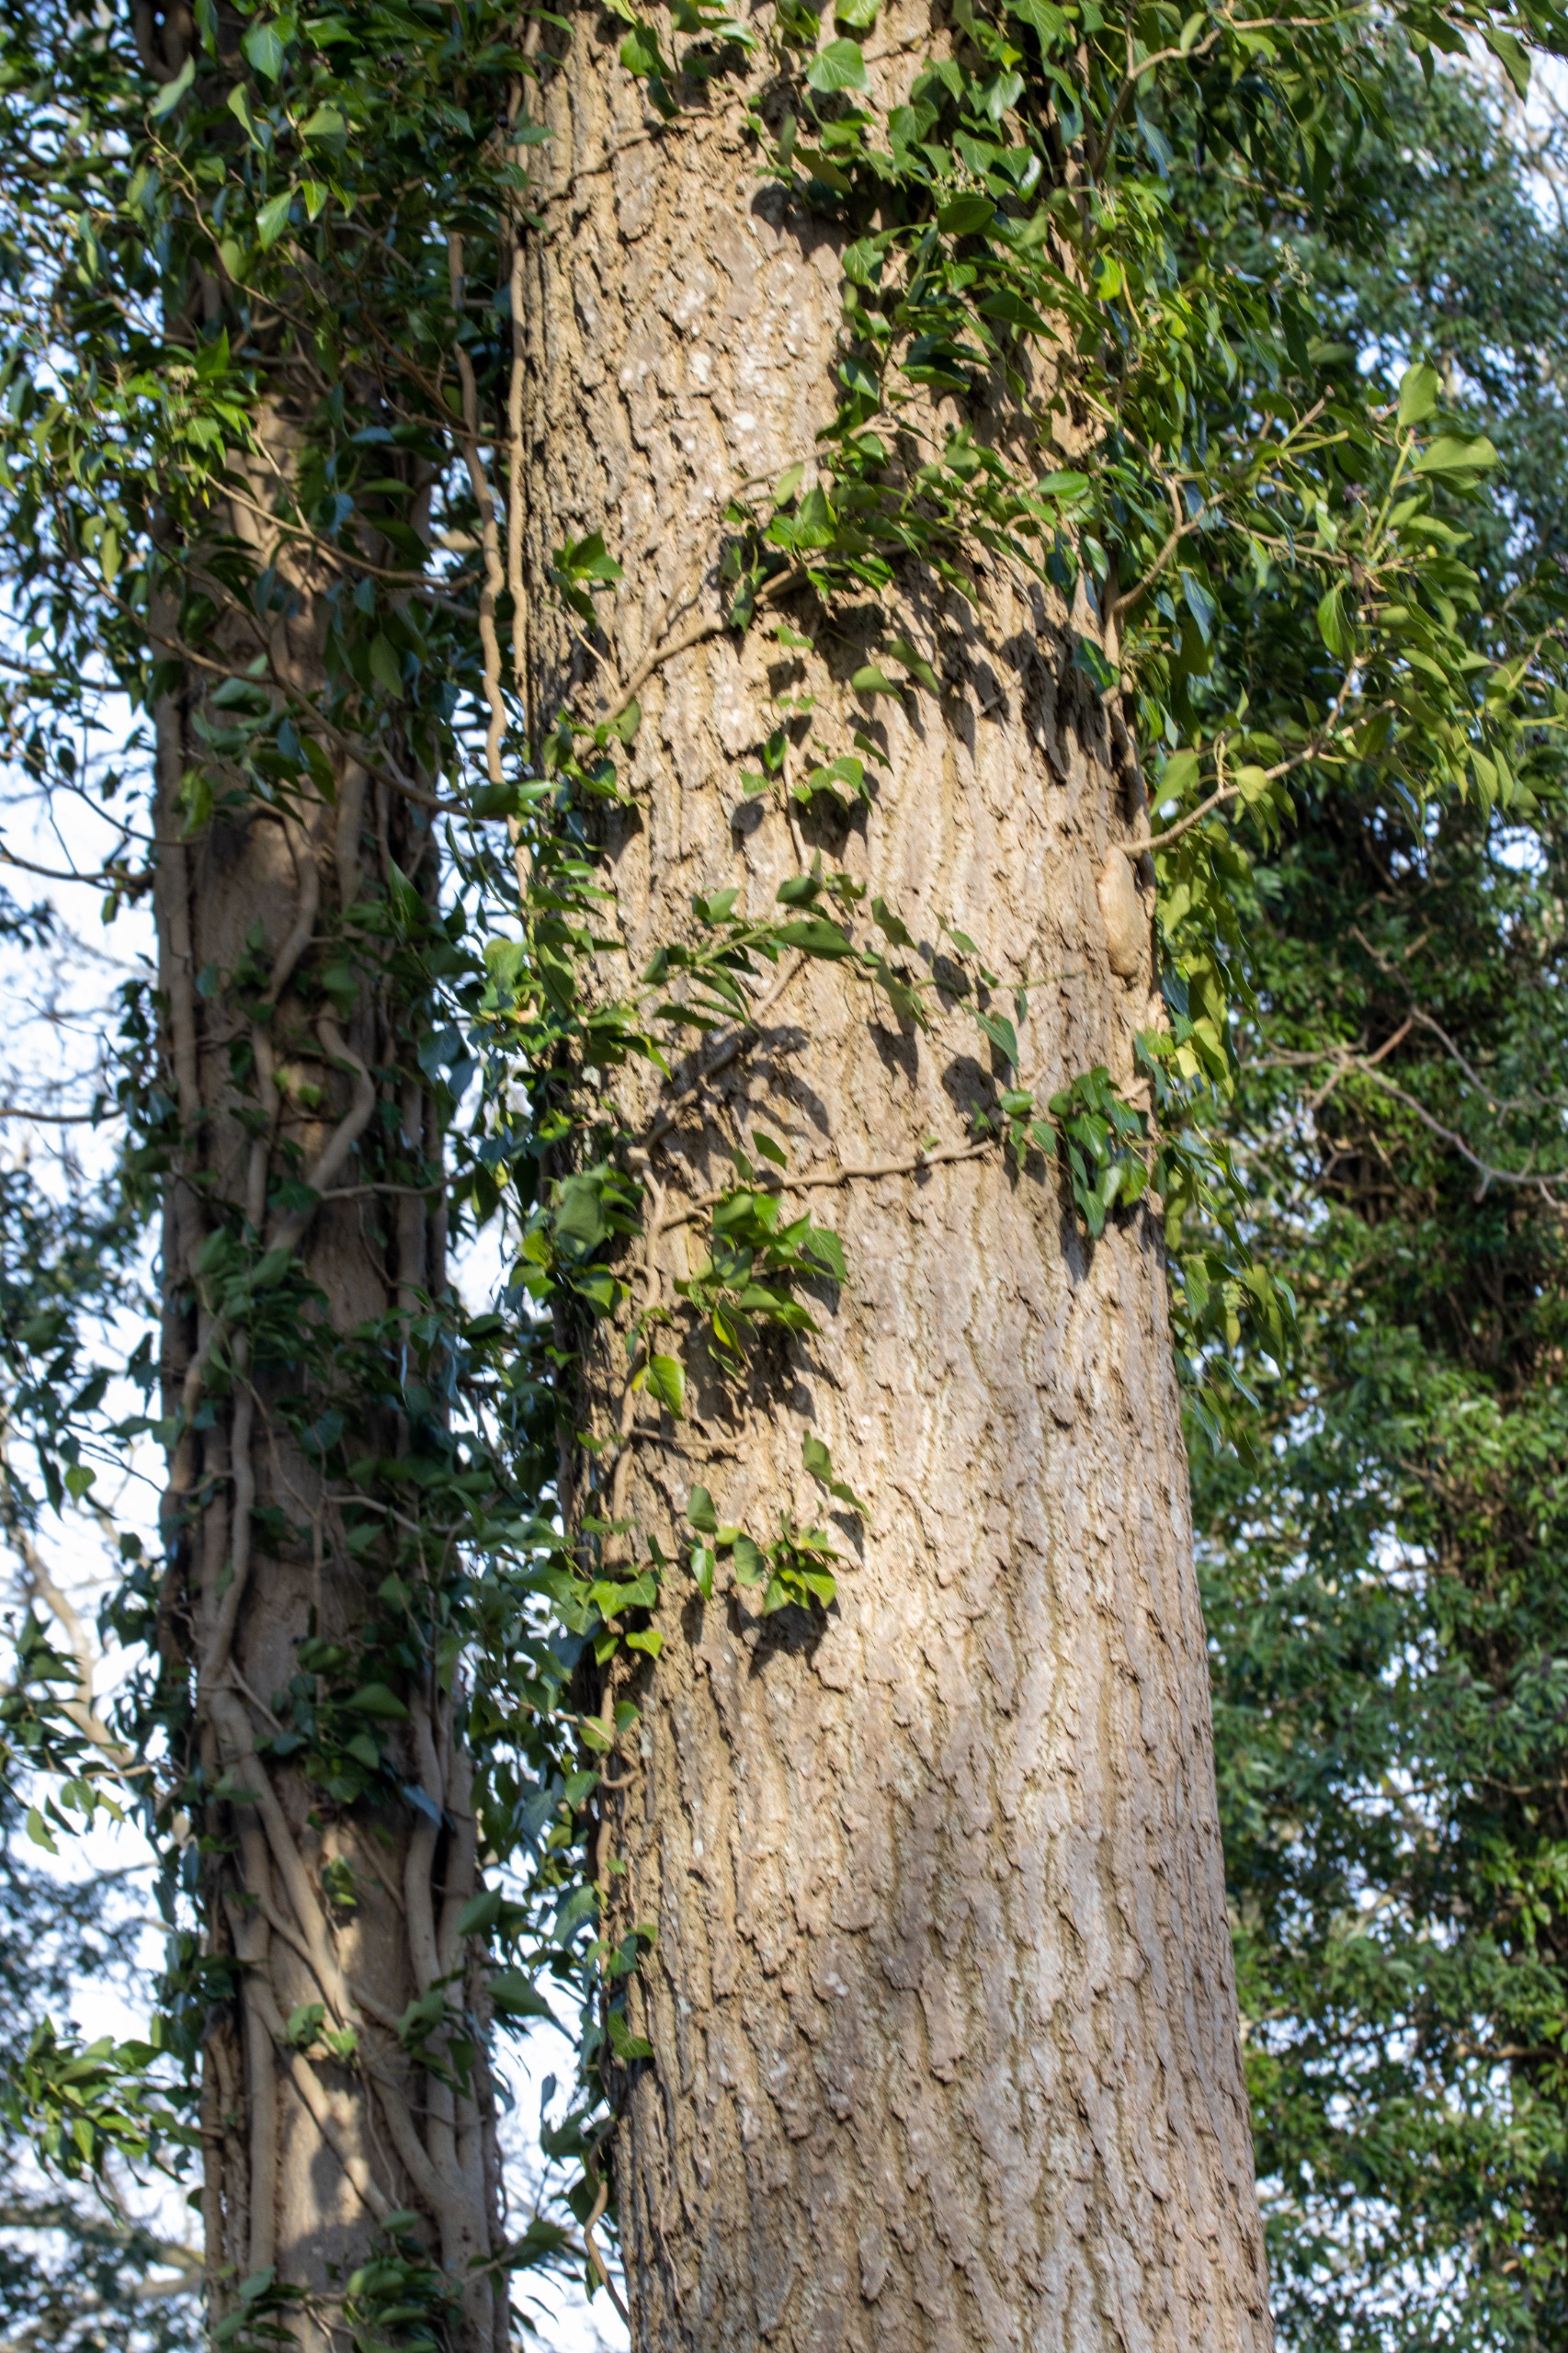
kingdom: Plantae
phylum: Tracheophyta
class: Magnoliopsida
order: Apiales
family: Araliaceae
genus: Hedera
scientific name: Hedera helix
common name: Vedbend
